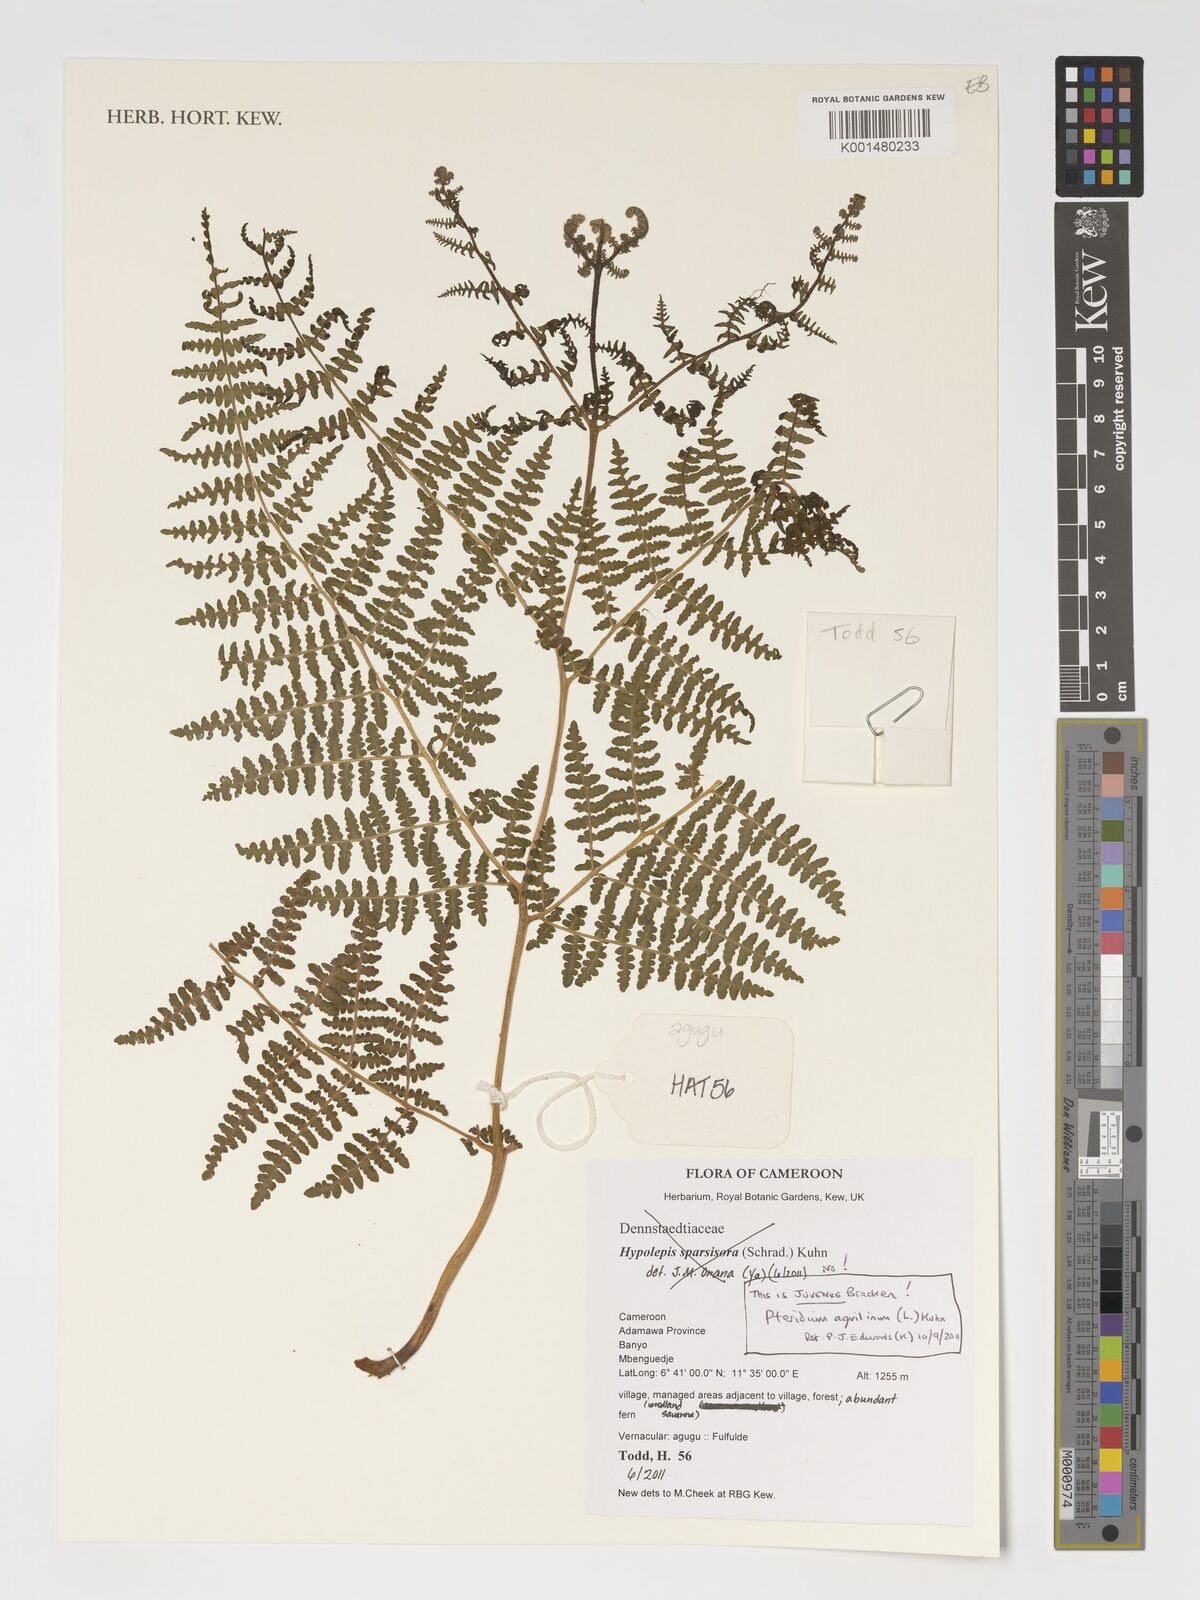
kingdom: Plantae
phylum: Tracheophyta
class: Polypodiopsida
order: Polypodiales
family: Dennstaedtiaceae
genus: Pteridium
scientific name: Pteridium aquilinum
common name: Bracken
